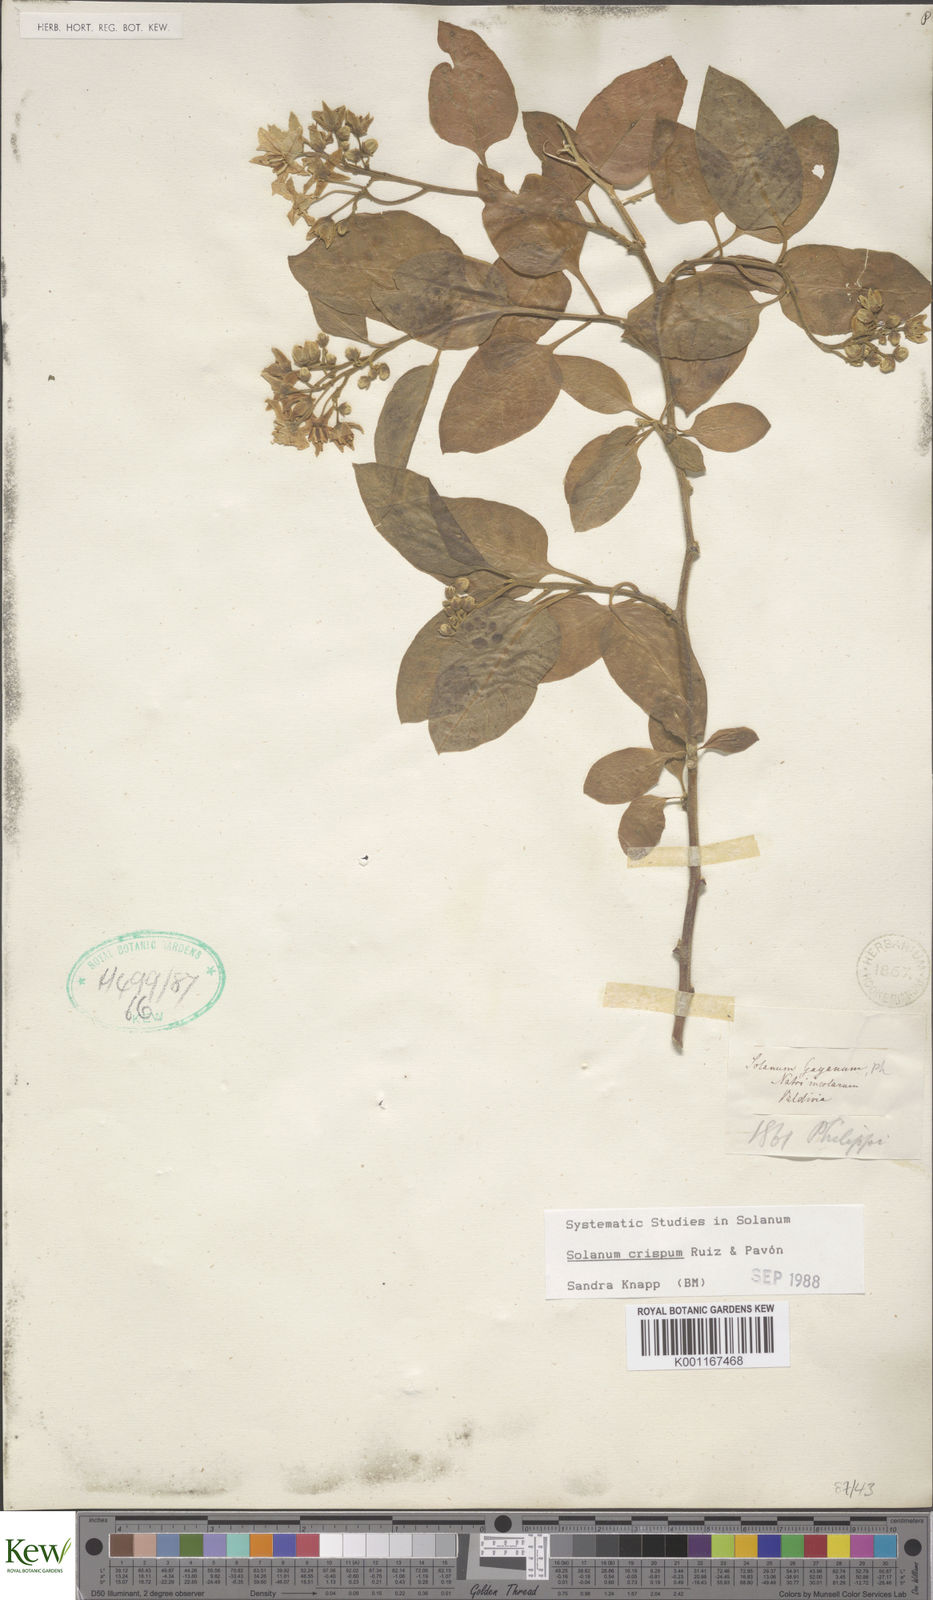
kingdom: Plantae
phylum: Tracheophyta
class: Magnoliopsida
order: Solanales
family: Solanaceae
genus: Solanum
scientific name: Solanum crispum
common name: Chilean nightshade
